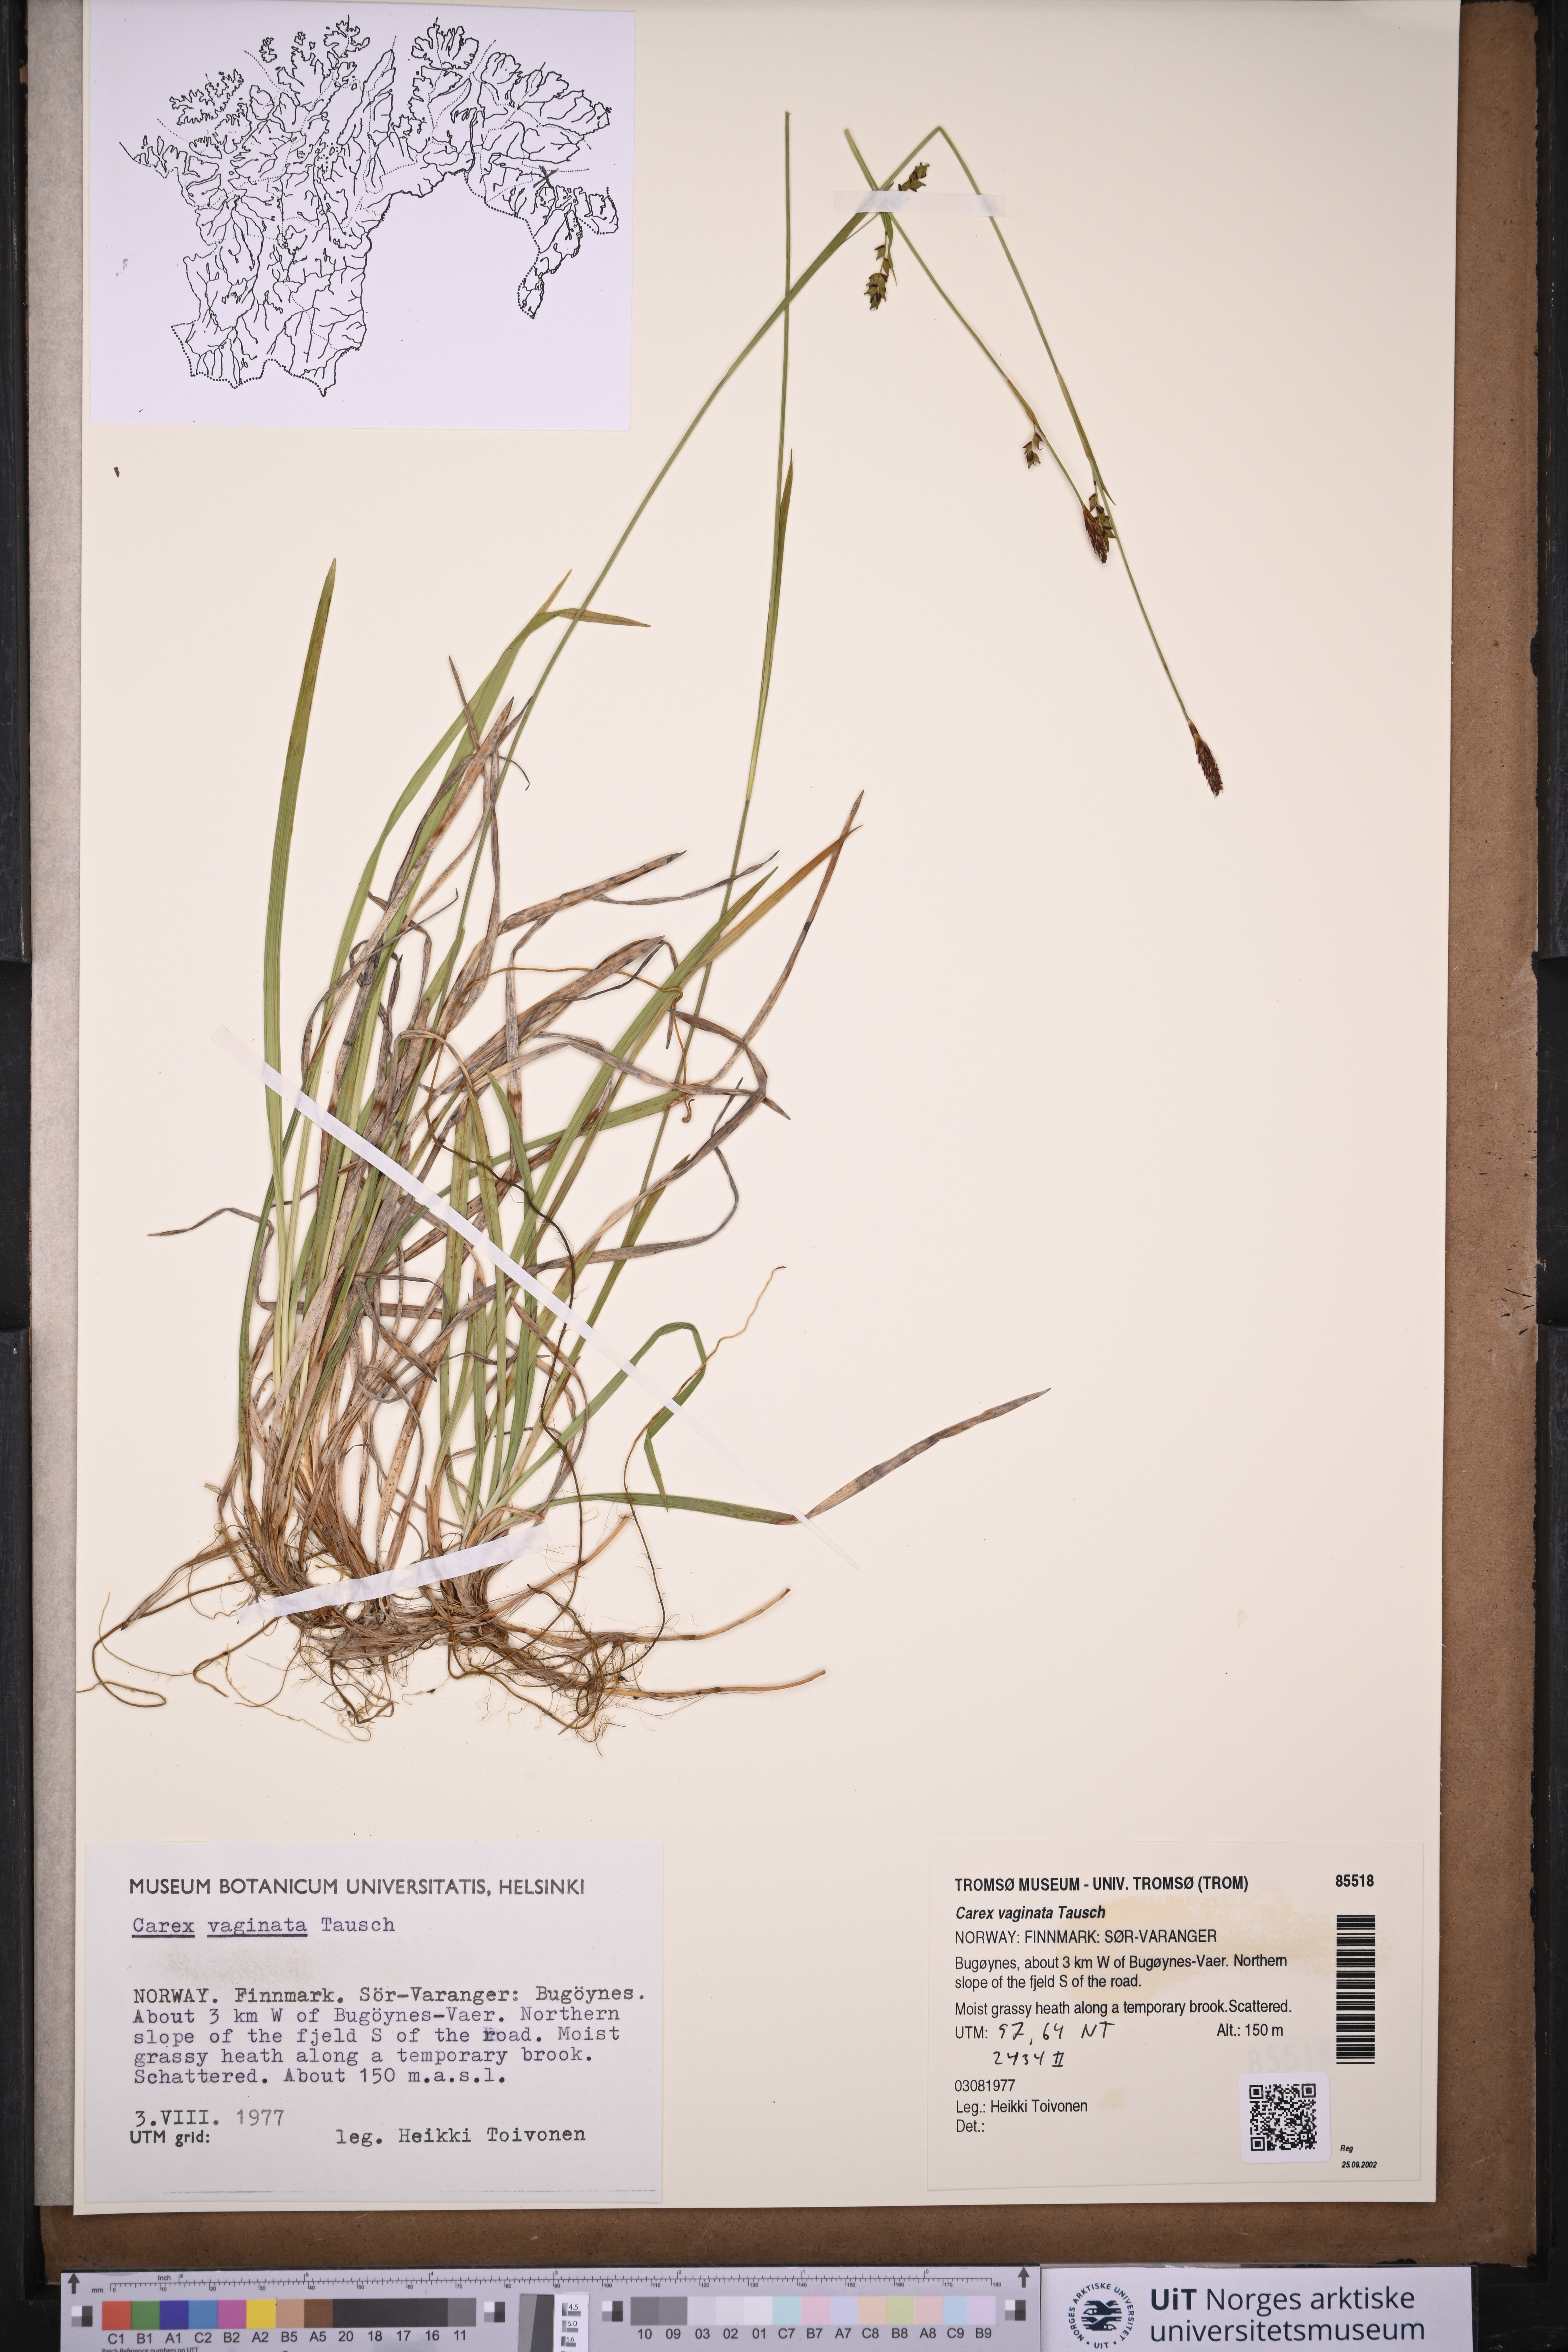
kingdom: Plantae
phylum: Tracheophyta
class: Liliopsida
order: Poales
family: Cyperaceae
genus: Carex
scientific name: Carex vaginata
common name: Sheathed sedge
